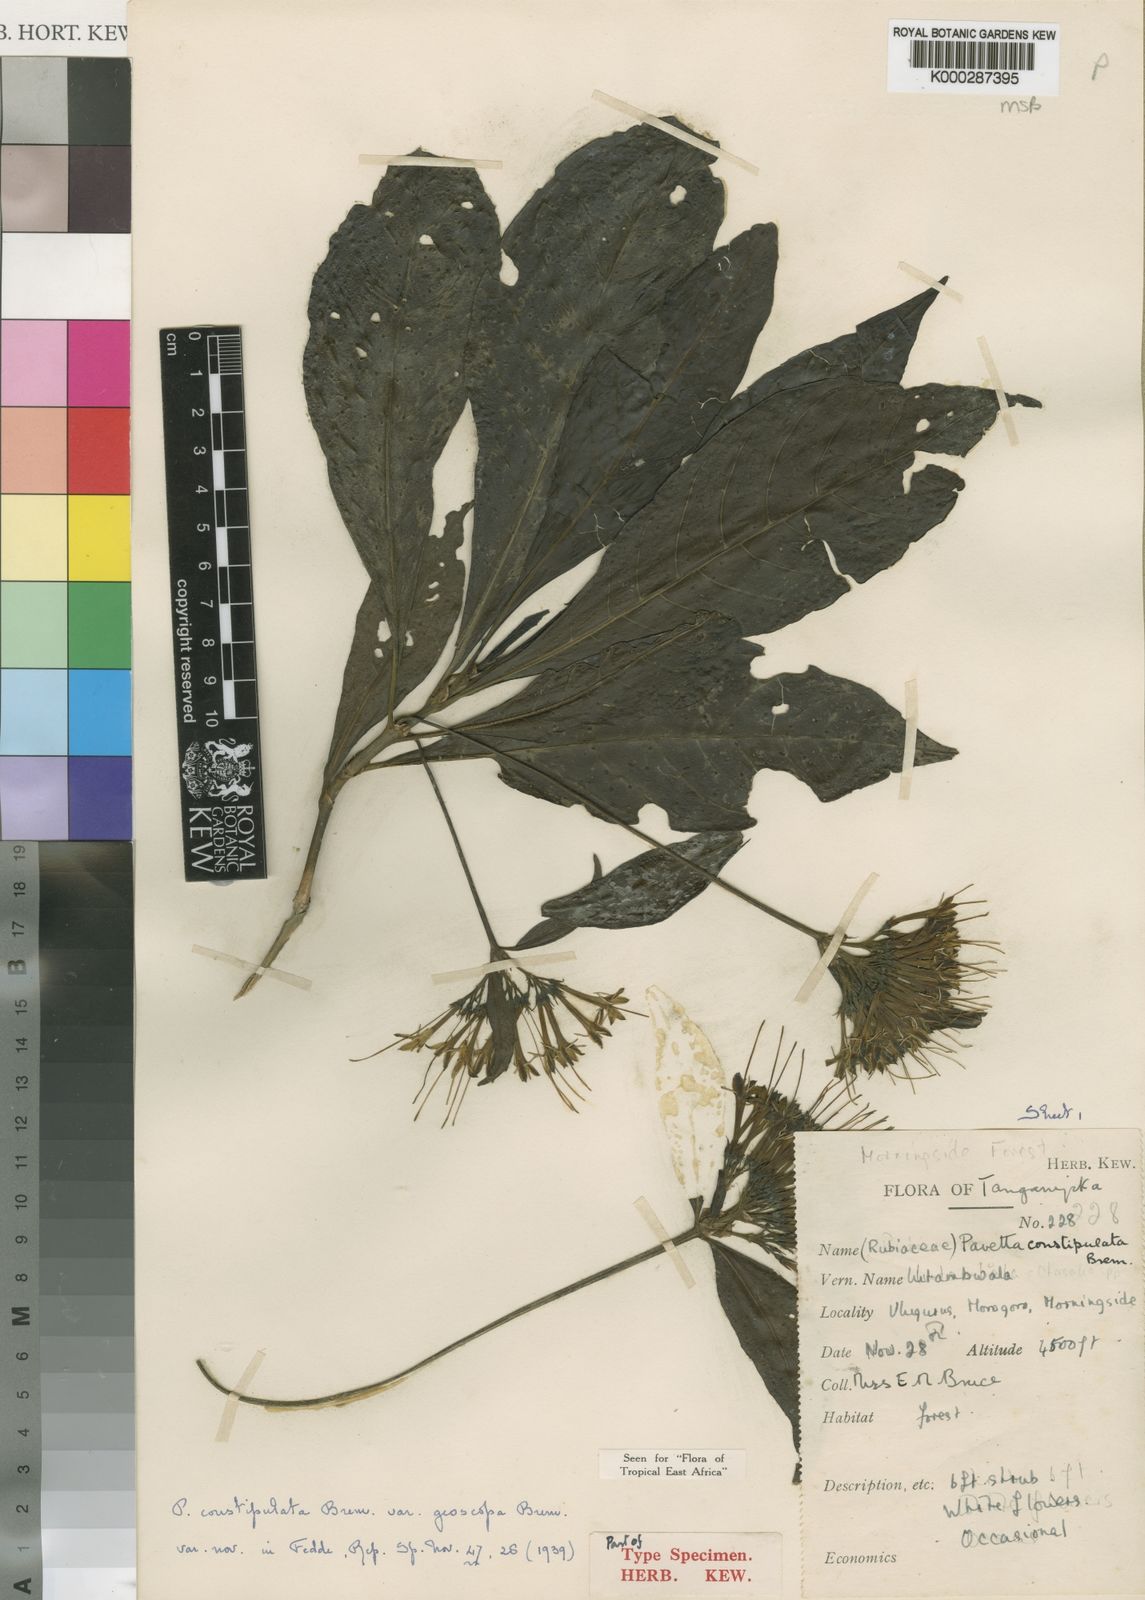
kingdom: Plantae
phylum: Tracheophyta
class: Magnoliopsida
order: Gentianales
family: Rubiaceae
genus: Pavetta
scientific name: Pavetta constipulata
